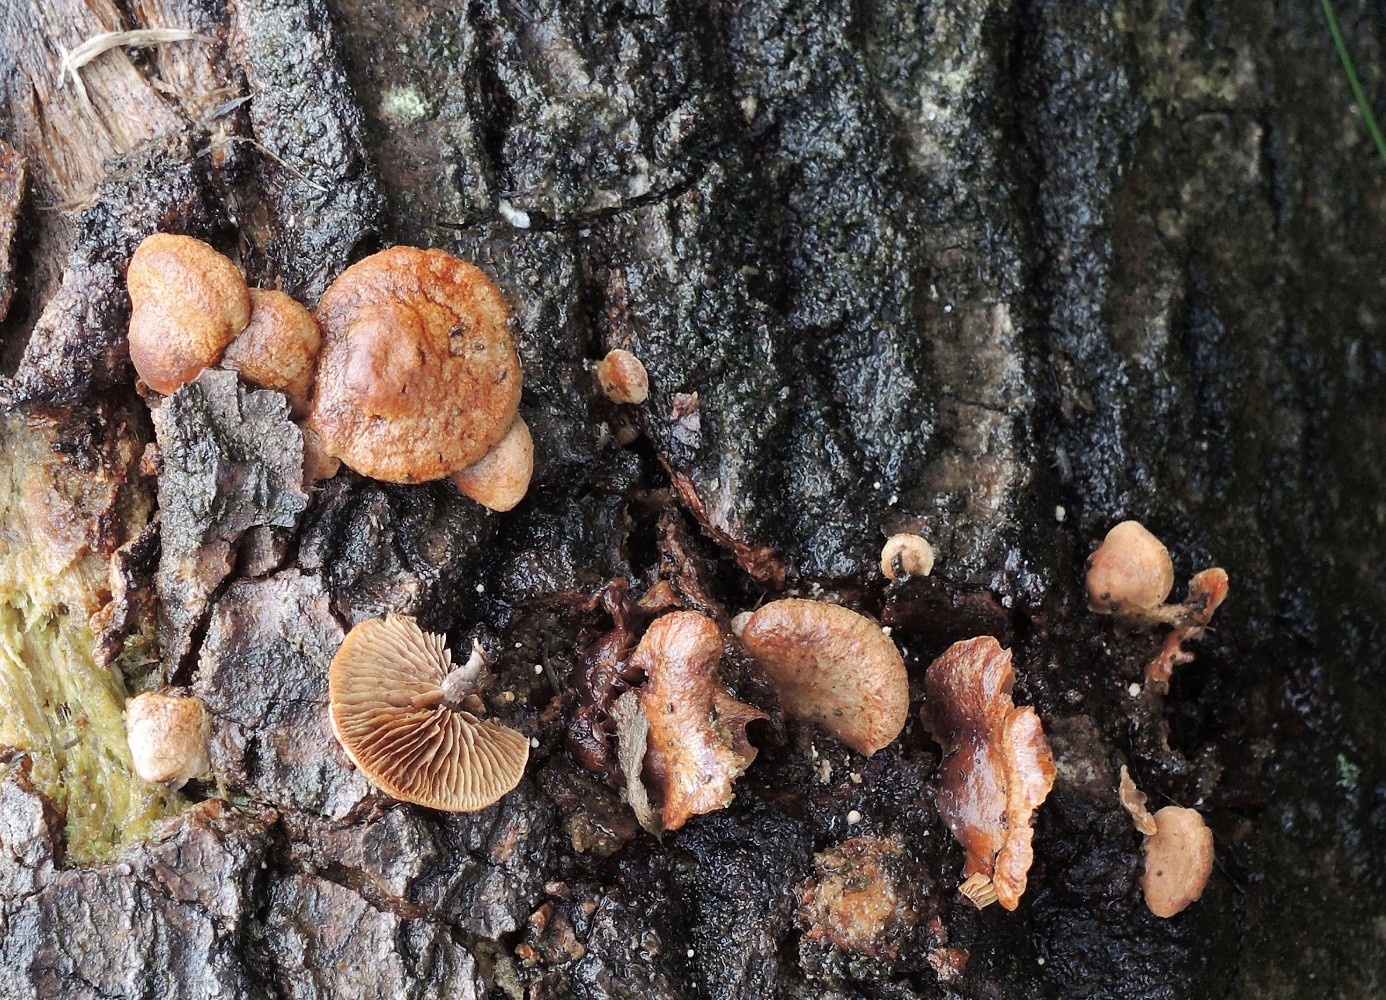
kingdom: Fungi
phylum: Basidiomycota
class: Agaricomycetes
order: Agaricales
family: Strophariaceae
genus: Deconica
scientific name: Deconica horizontalis
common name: ved-stråhat
